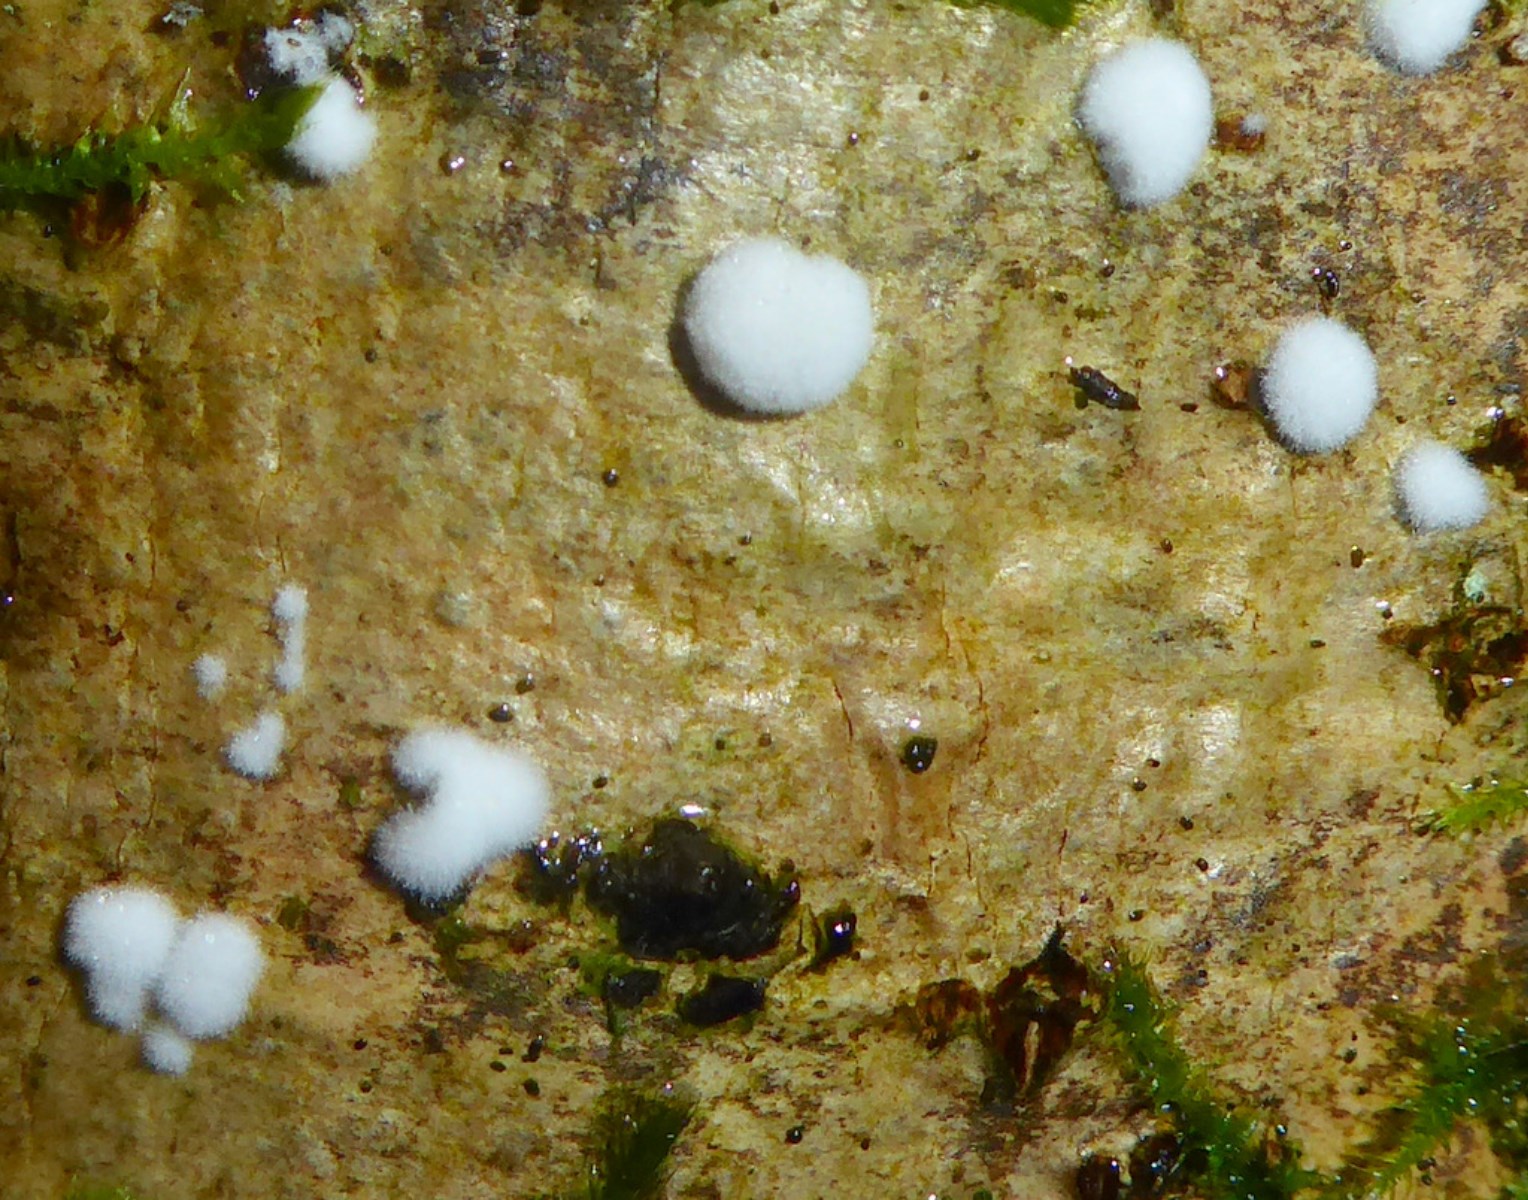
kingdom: Fungi
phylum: Ascomycota
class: Sordariomycetes
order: Hypocreales
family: Hypocreaceae
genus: Trichoderma
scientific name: Trichoderma
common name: kødkerne
